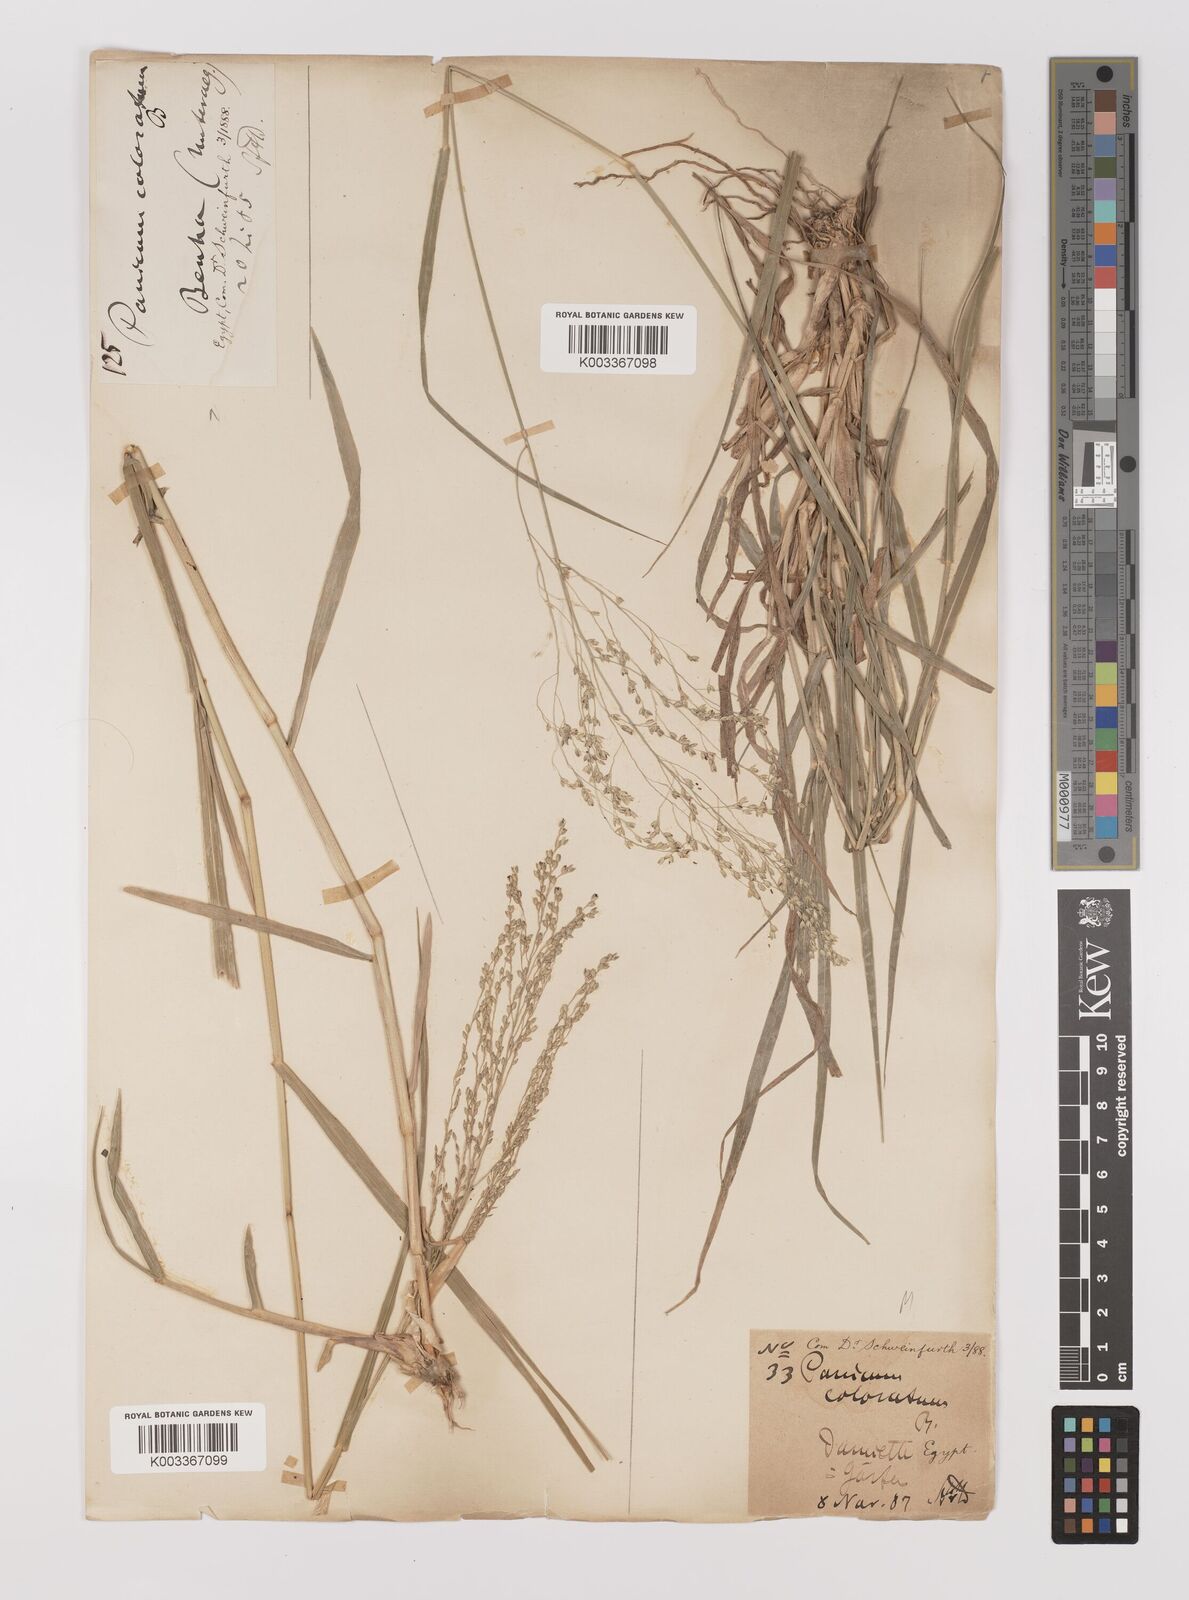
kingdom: Plantae
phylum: Tracheophyta
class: Liliopsida
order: Poales
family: Poaceae
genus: Panicum
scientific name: Panicum coloratum
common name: Kleingrass
